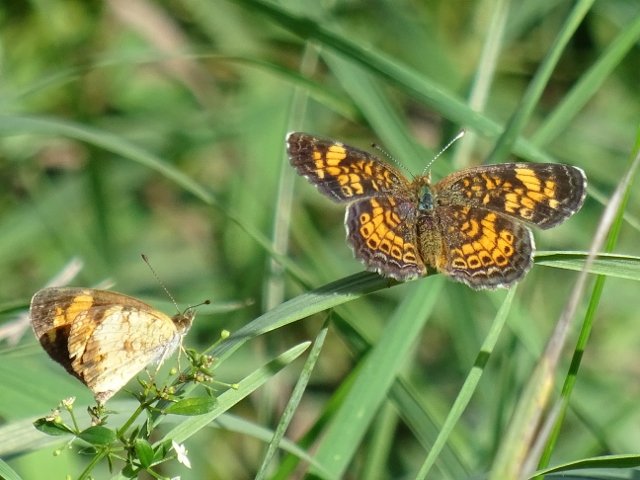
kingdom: Animalia
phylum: Arthropoda
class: Insecta
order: Lepidoptera
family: Nymphalidae
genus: Phyciodes
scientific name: Phyciodes tharos
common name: Pearl Crescent
